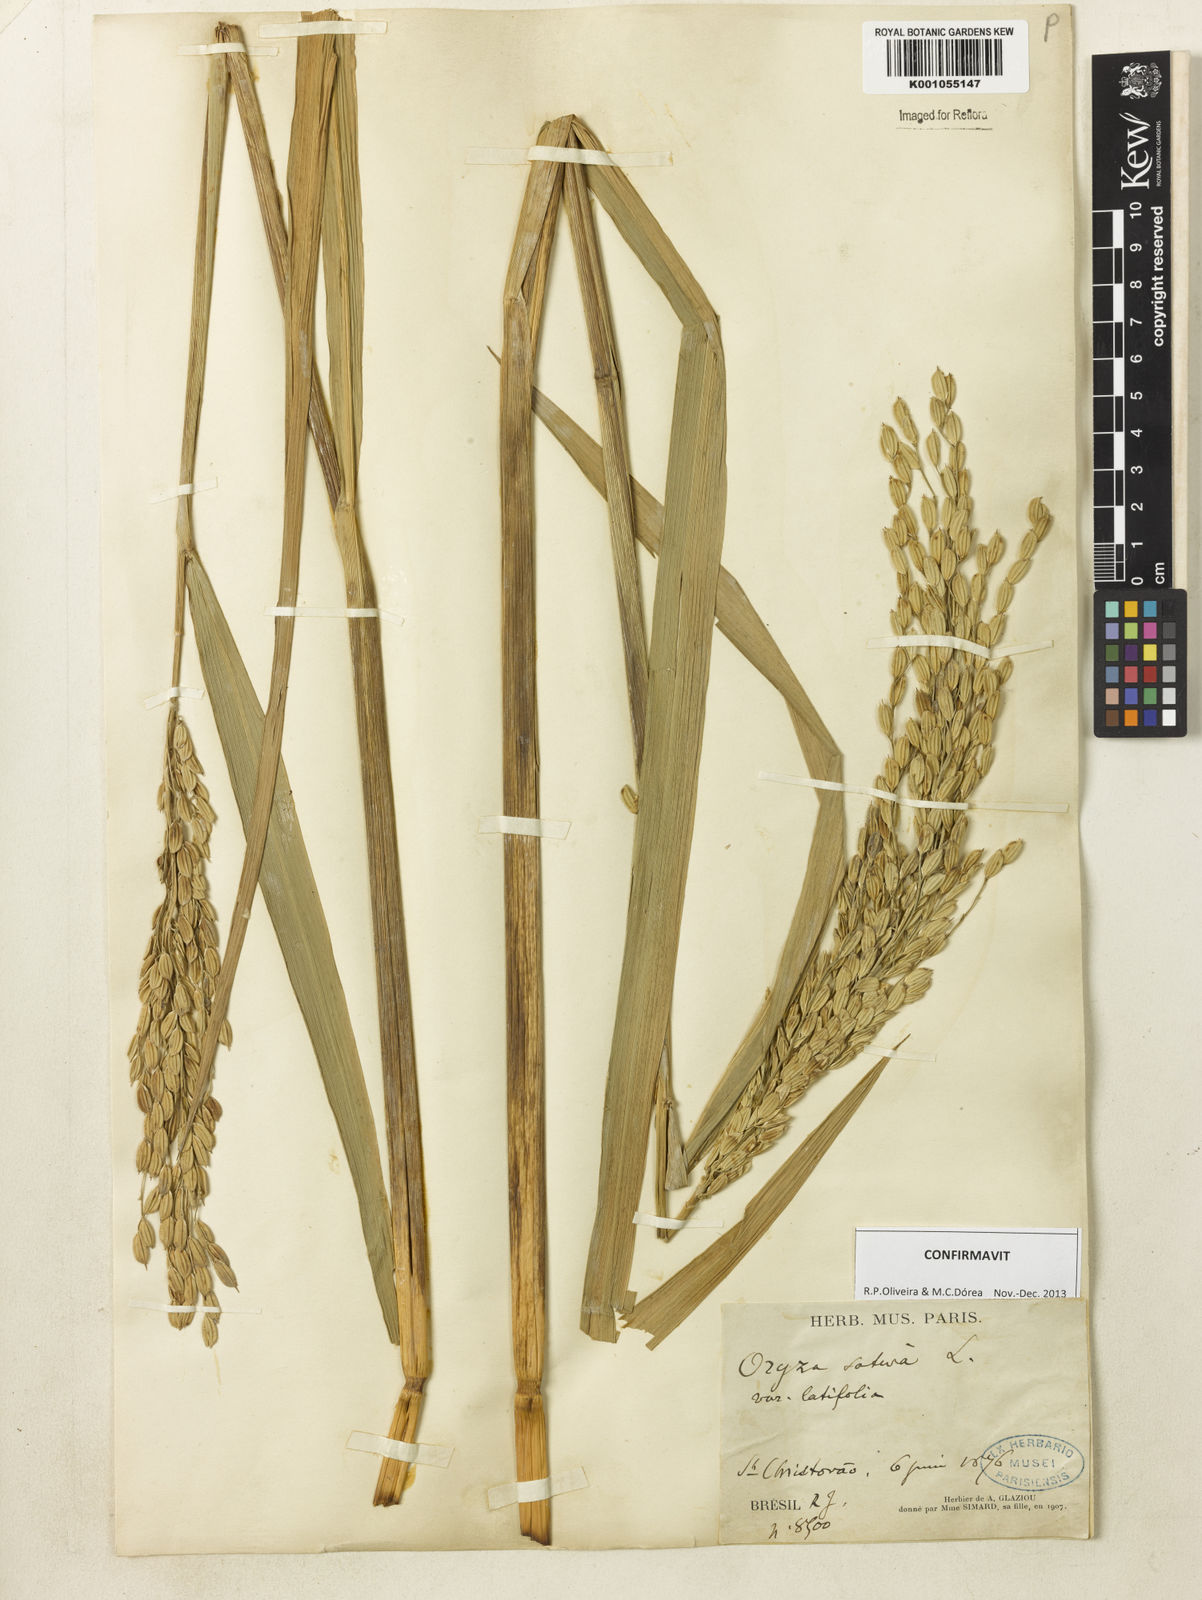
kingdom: Plantae
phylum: Tracheophyta
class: Liliopsida
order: Poales
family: Poaceae
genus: Oryza
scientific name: Oryza sativa
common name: Rice
